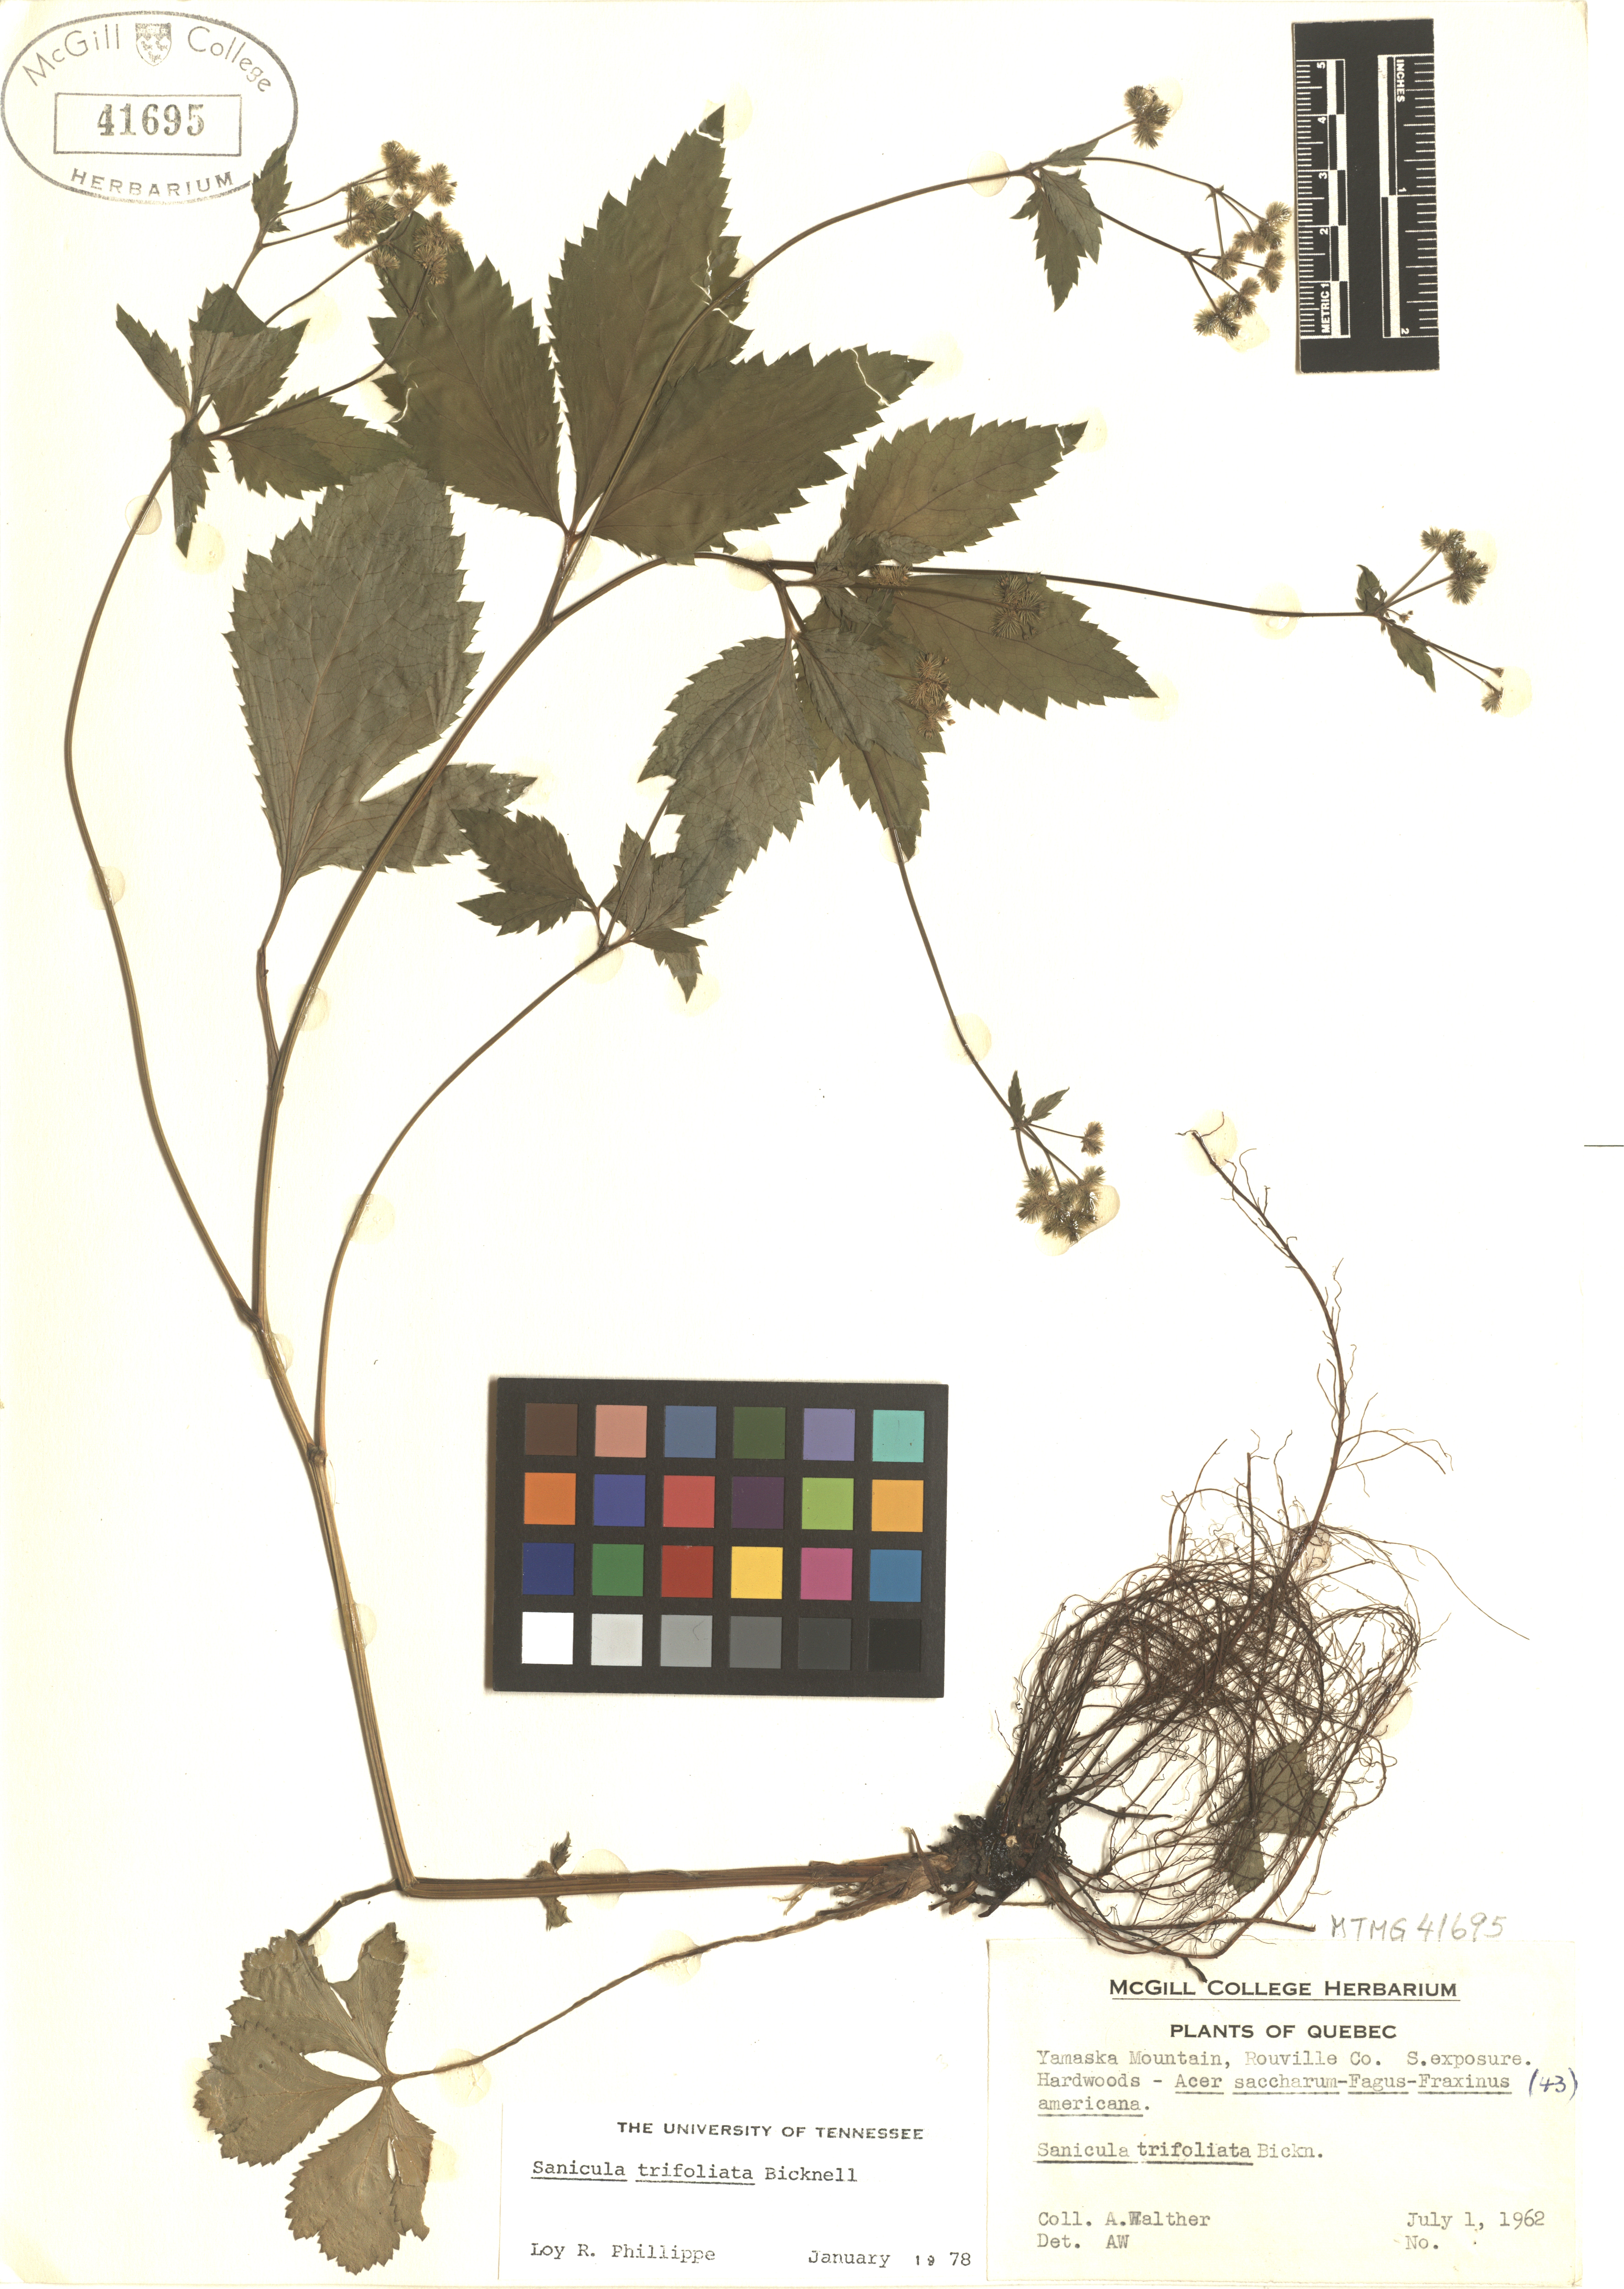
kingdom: Plantae
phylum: Tracheophyta
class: Magnoliopsida
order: Apiales
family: Apiaceae
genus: Sanicula
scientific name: Sanicula trifoliata
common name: Beaked sanicle
